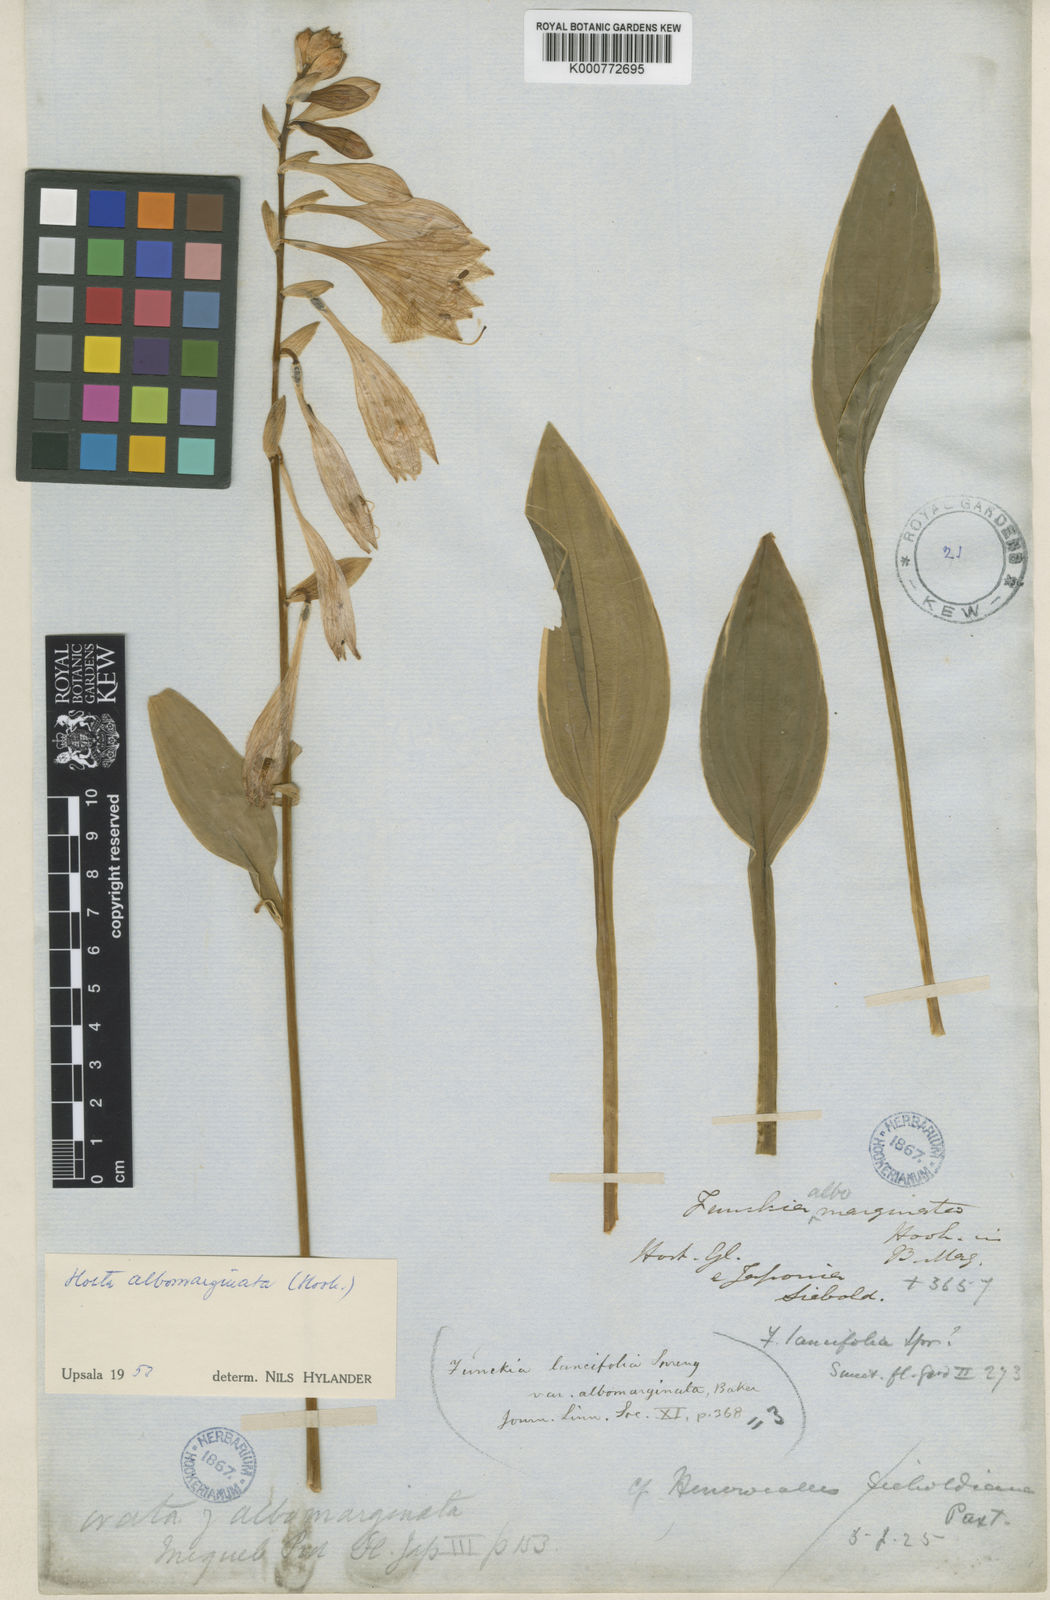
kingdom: Plantae
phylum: Tracheophyta
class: Liliopsida
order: Asparagales
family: Asparagaceae
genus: Hosta
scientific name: Hosta lancifolia
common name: Narrowleaf plantain lily
